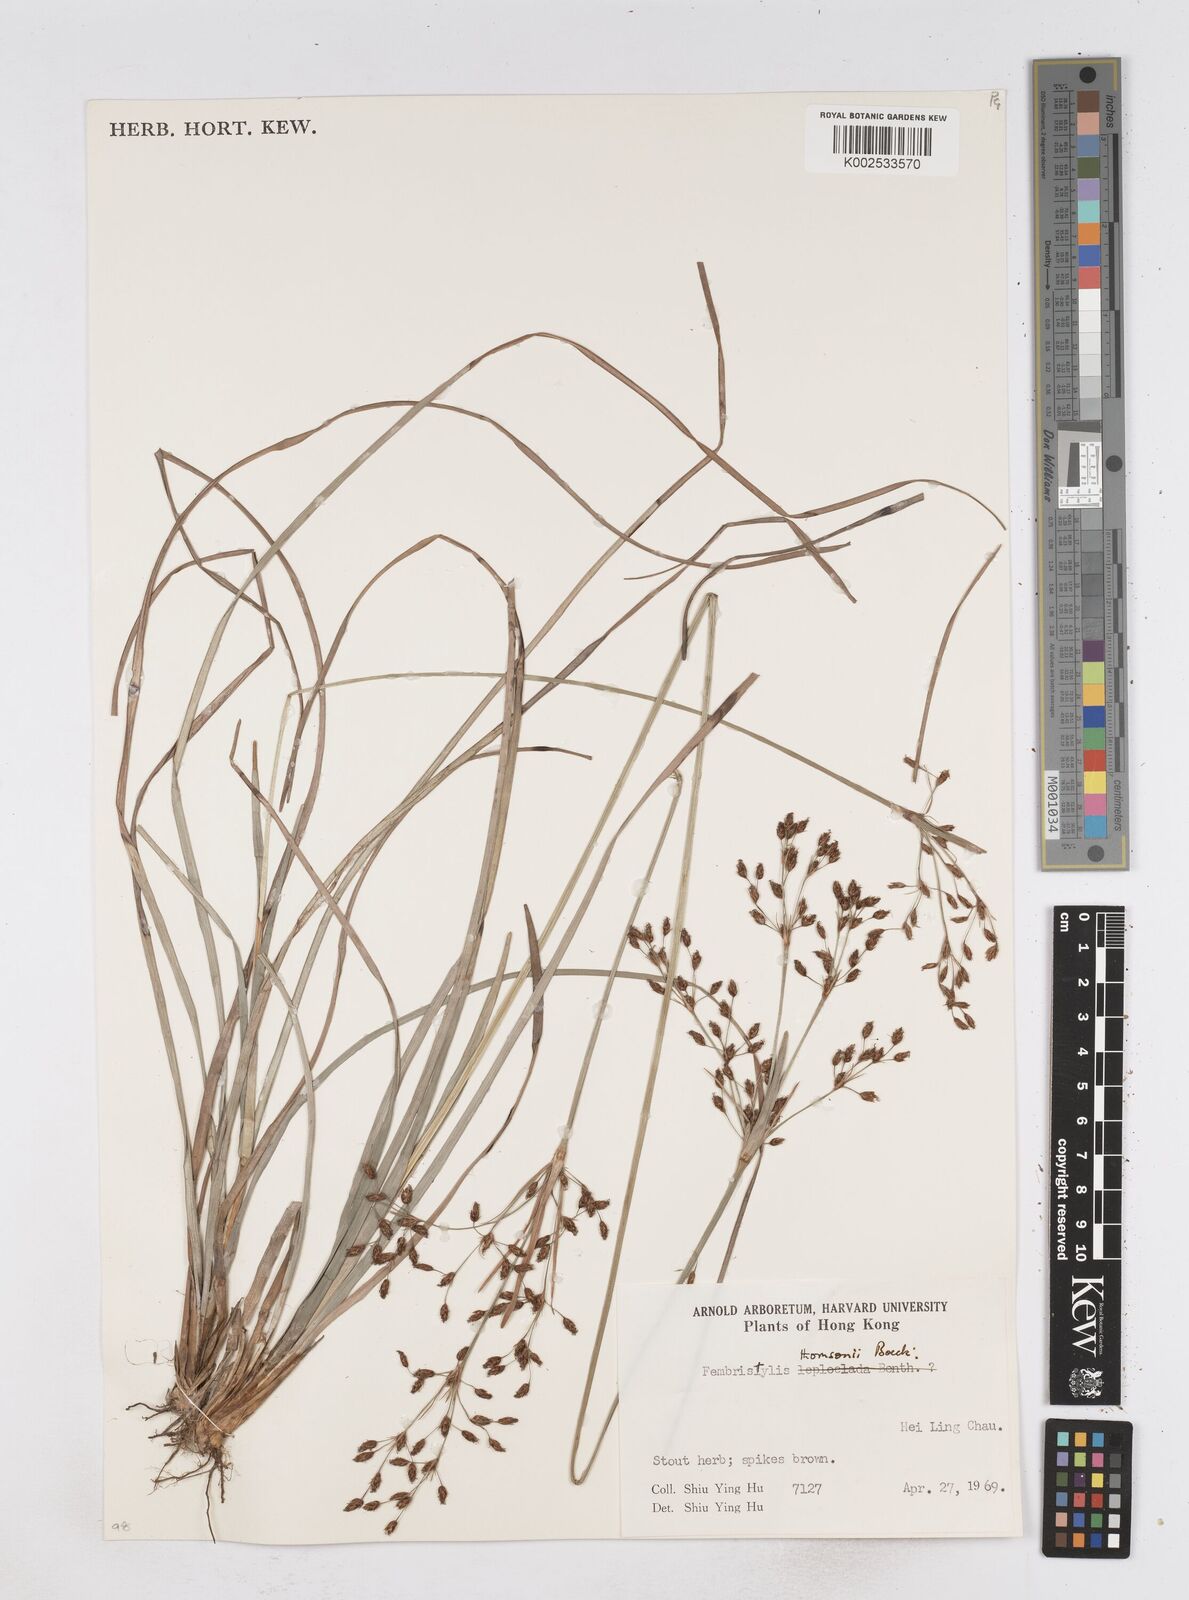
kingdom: Plantae
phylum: Tracheophyta
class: Liliopsida
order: Poales
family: Cyperaceae
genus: Fimbristylis
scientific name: Fimbristylis thomsonii
